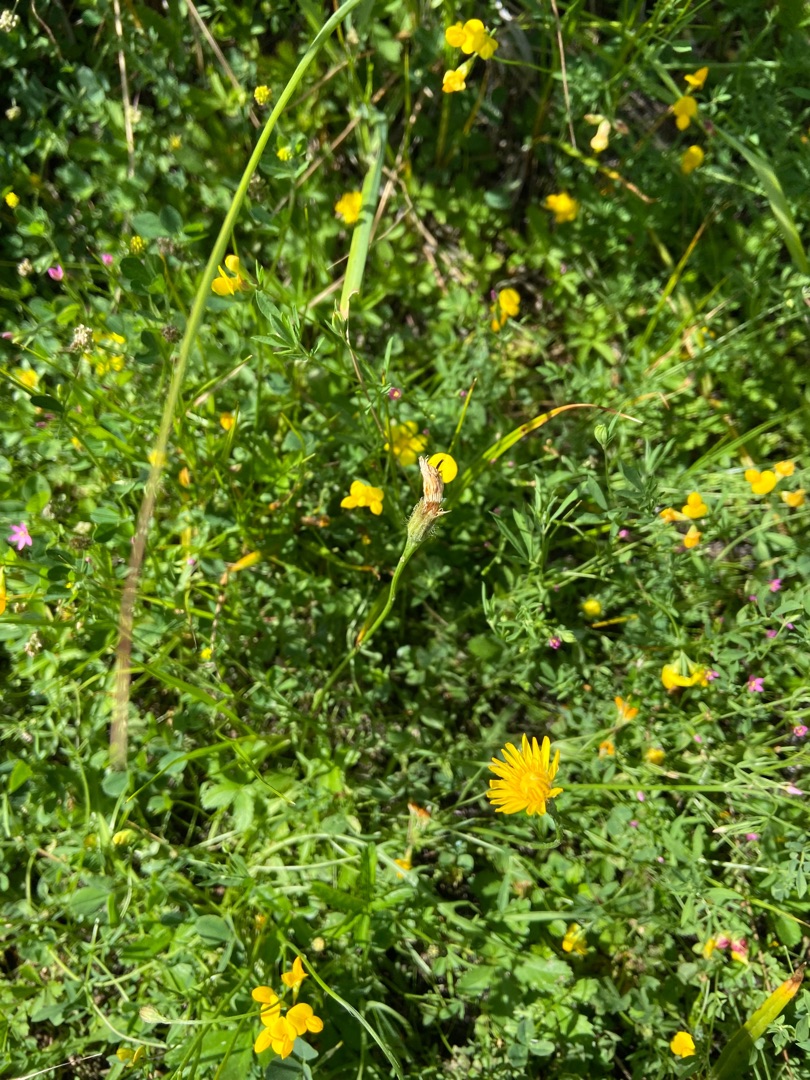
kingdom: Plantae
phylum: Tracheophyta
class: Magnoliopsida
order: Asterales
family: Asteraceae
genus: Scorzoneroides
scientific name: Scorzoneroides autumnalis
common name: Høst-borst
